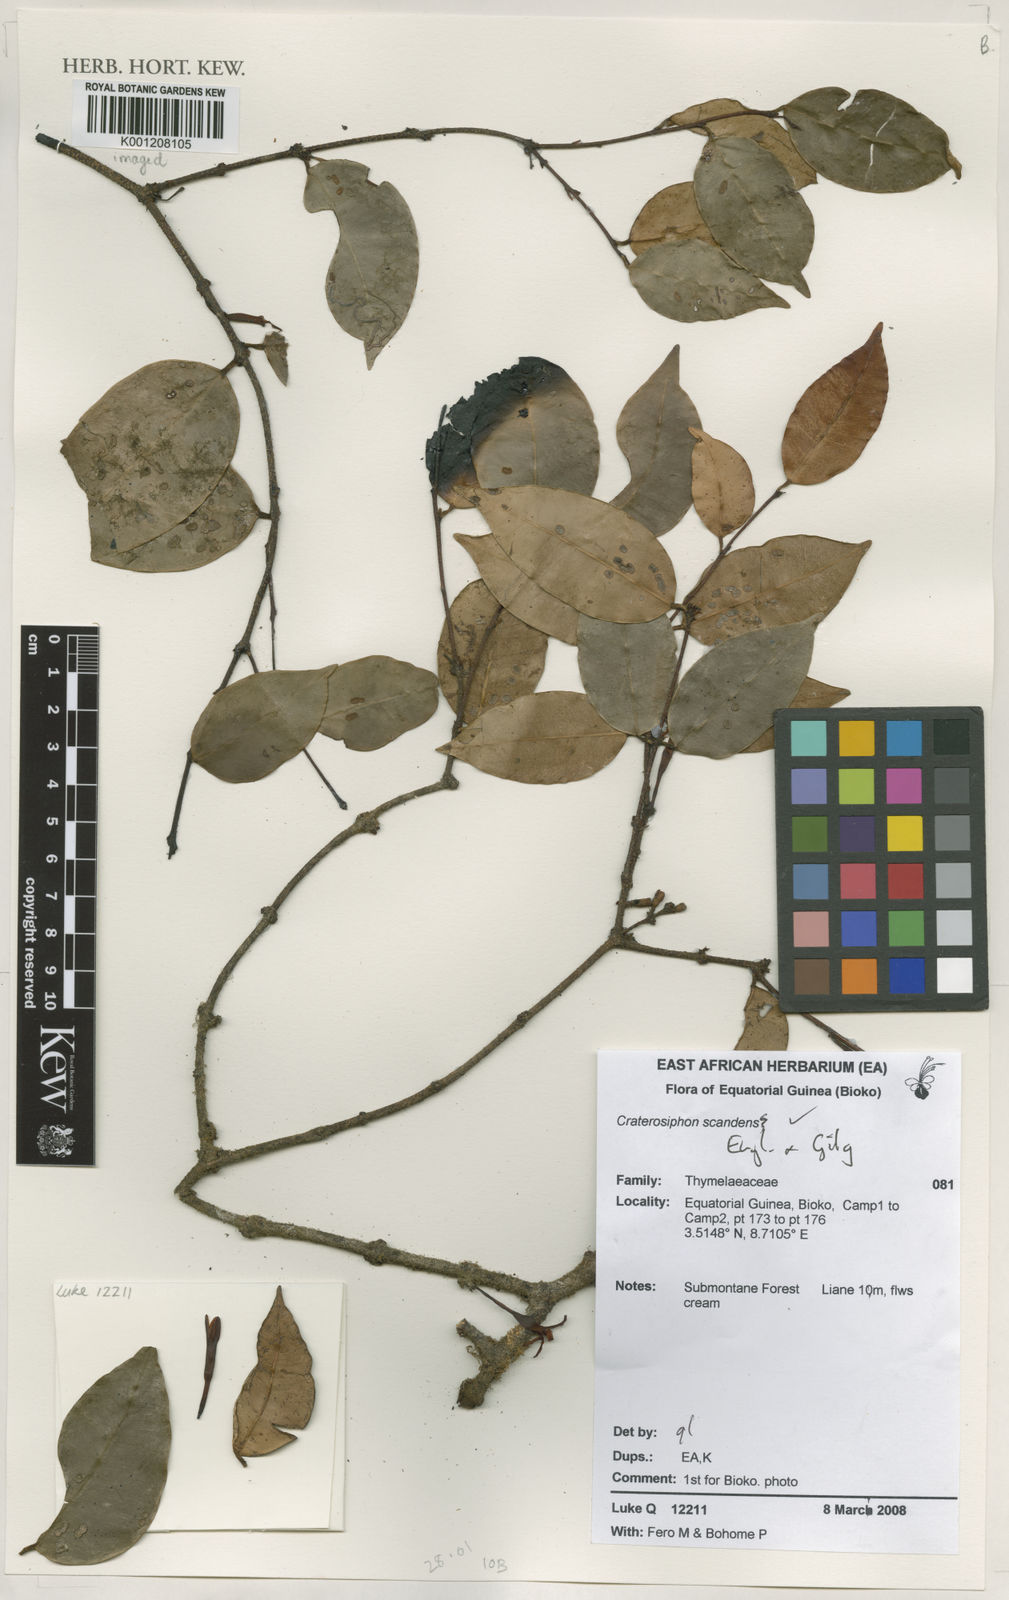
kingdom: Plantae
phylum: Tracheophyta
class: Magnoliopsida
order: Malvales
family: Thymelaeaceae
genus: Craterosiphon
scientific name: Craterosiphon scandens
